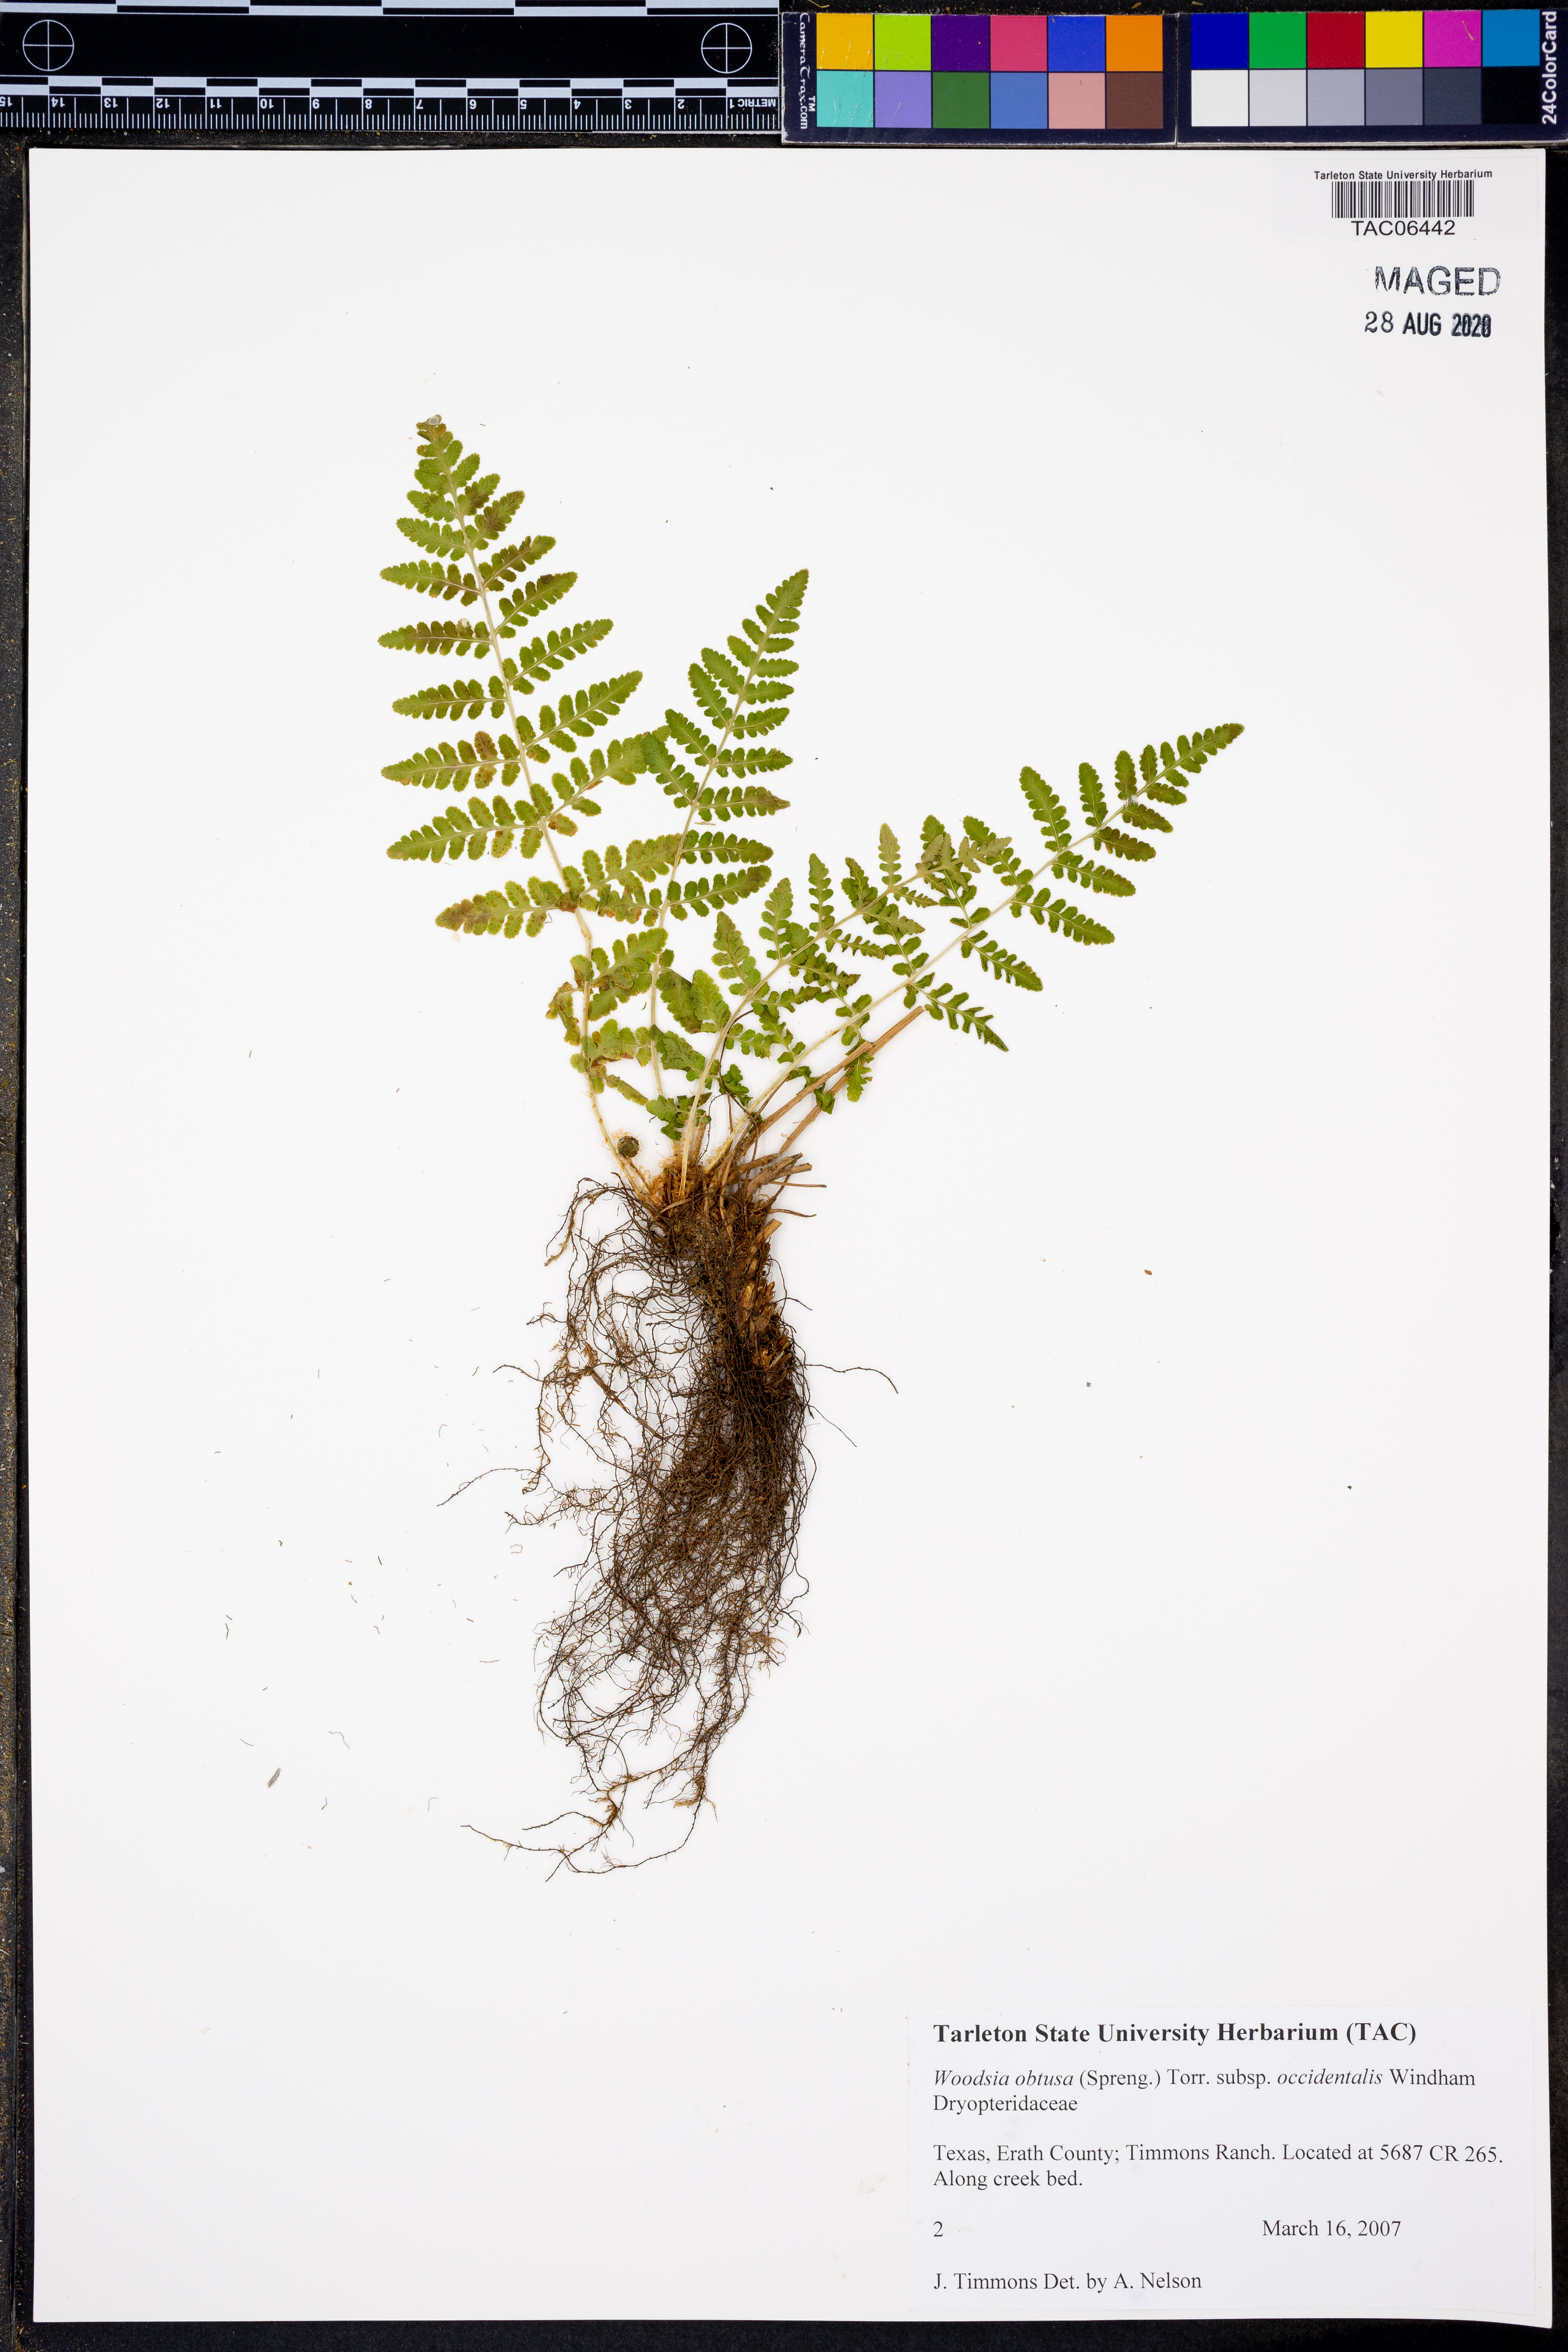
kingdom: Plantae
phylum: Tracheophyta
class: Polypodiopsida
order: Polypodiales
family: Woodsiaceae
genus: Physematium
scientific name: Physematium obtusum
